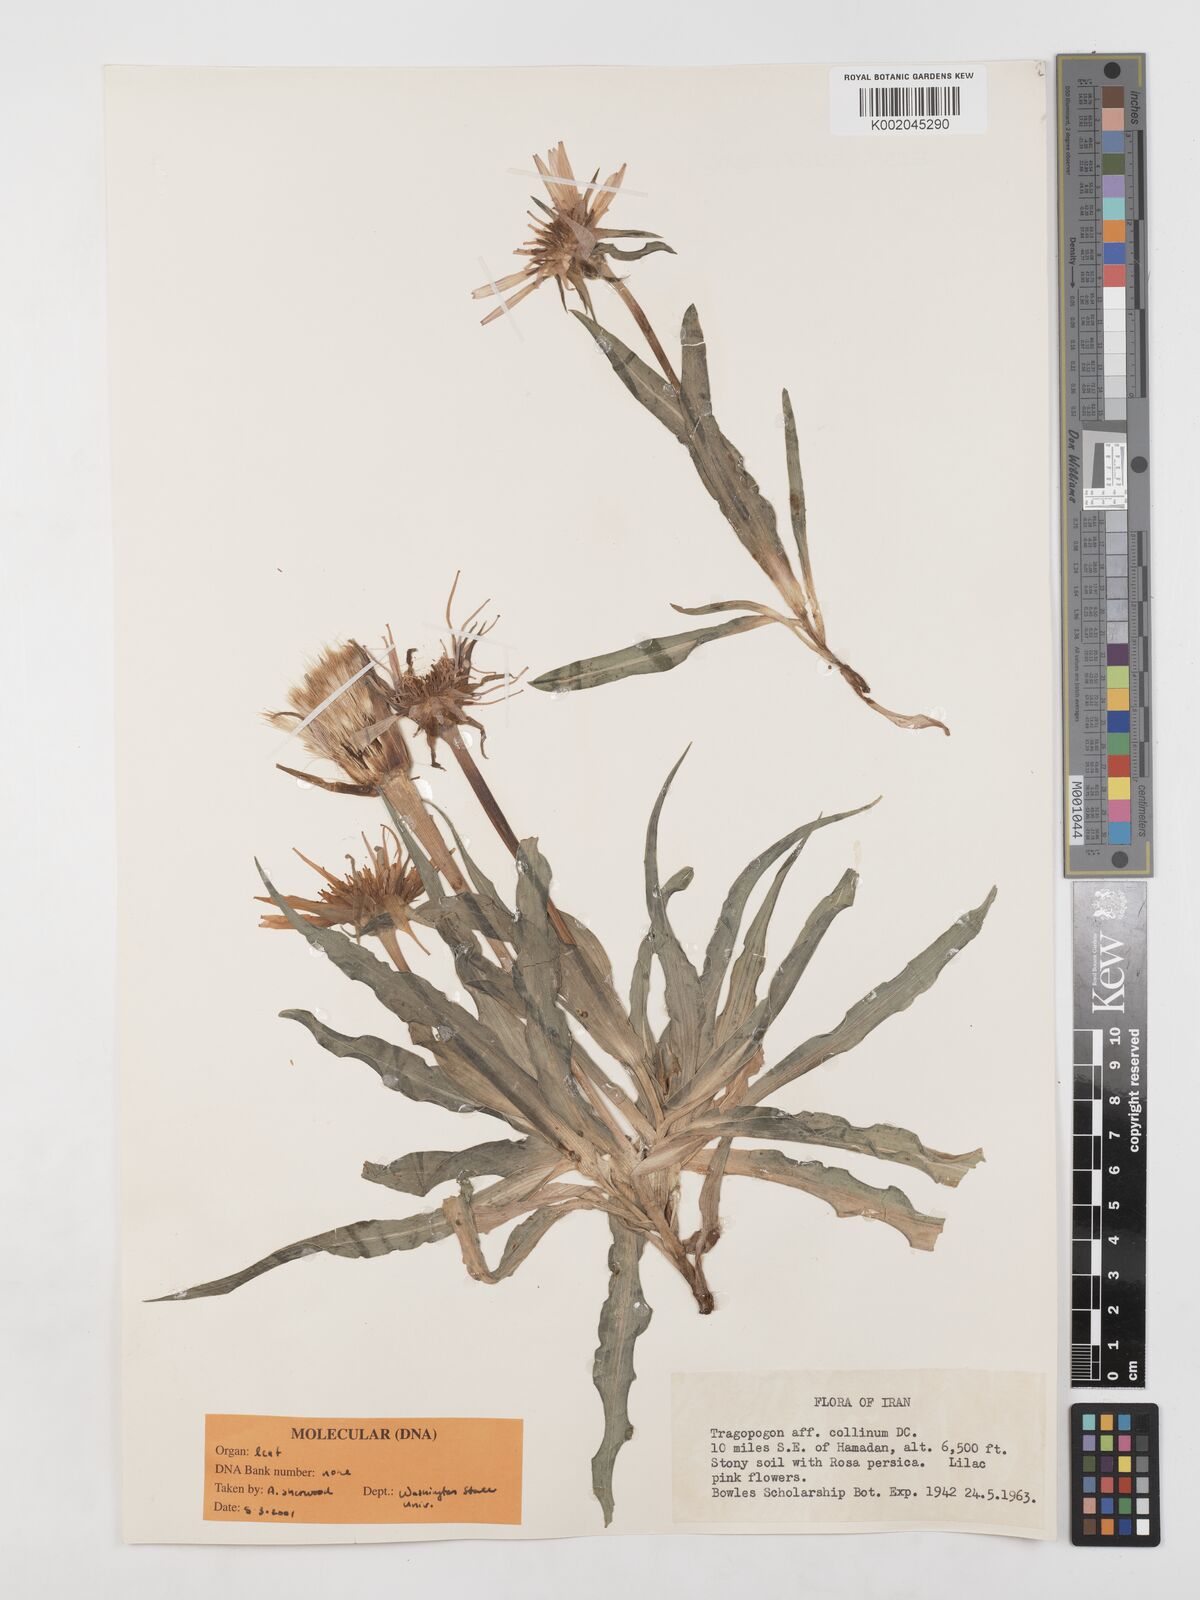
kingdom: Plantae
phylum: Tracheophyta
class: Magnoliopsida
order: Asterales
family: Asteraceae
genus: Tragopogon
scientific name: Tragopogon collinus
